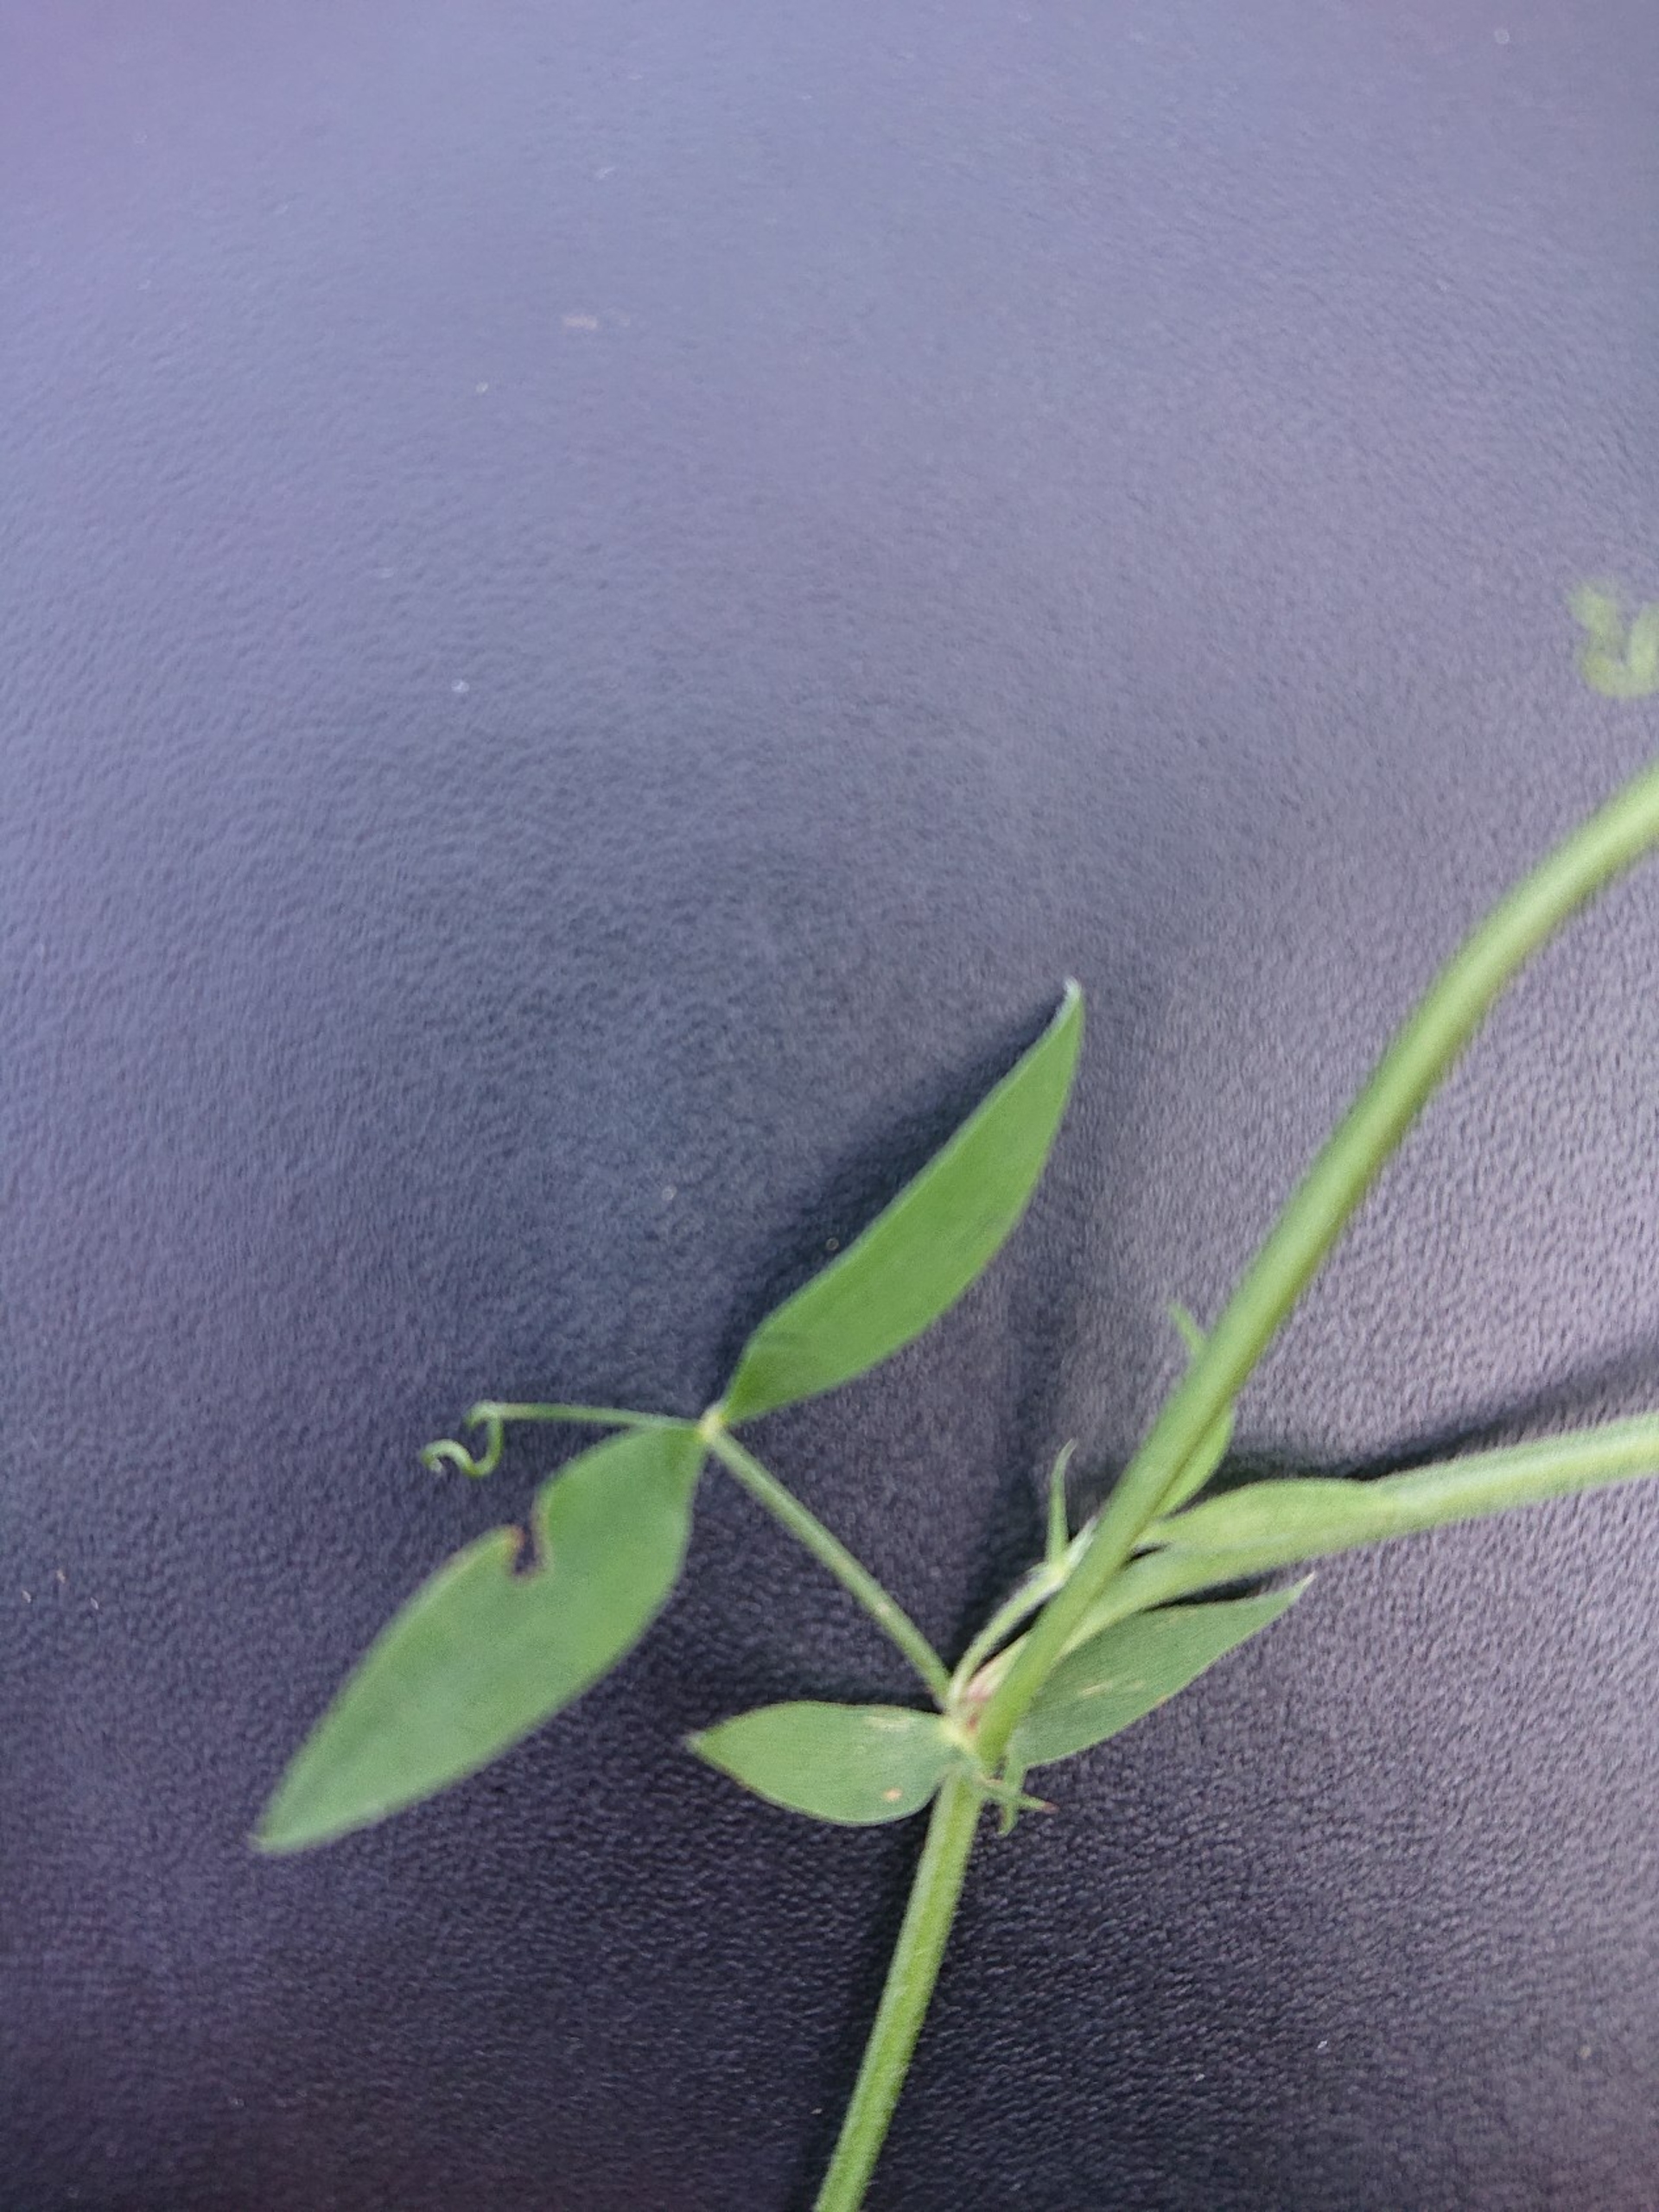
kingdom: Plantae
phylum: Tracheophyta
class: Magnoliopsida
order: Fabales
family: Fabaceae
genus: Lathyrus
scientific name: Lathyrus pratensis
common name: Gul fladbælg
